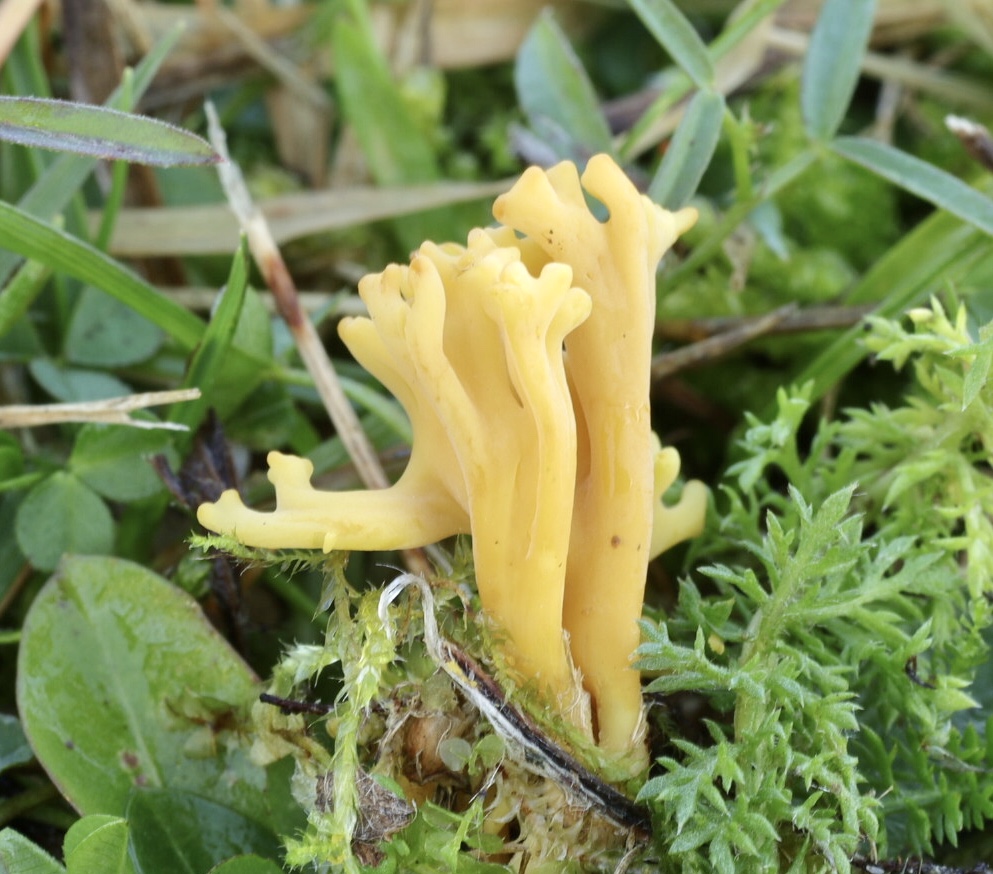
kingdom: Fungi
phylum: Basidiomycota
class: Agaricomycetes
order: Agaricales
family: Clavariaceae
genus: Clavulinopsis
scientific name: Clavulinopsis corniculata
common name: eng-køllesvamp
